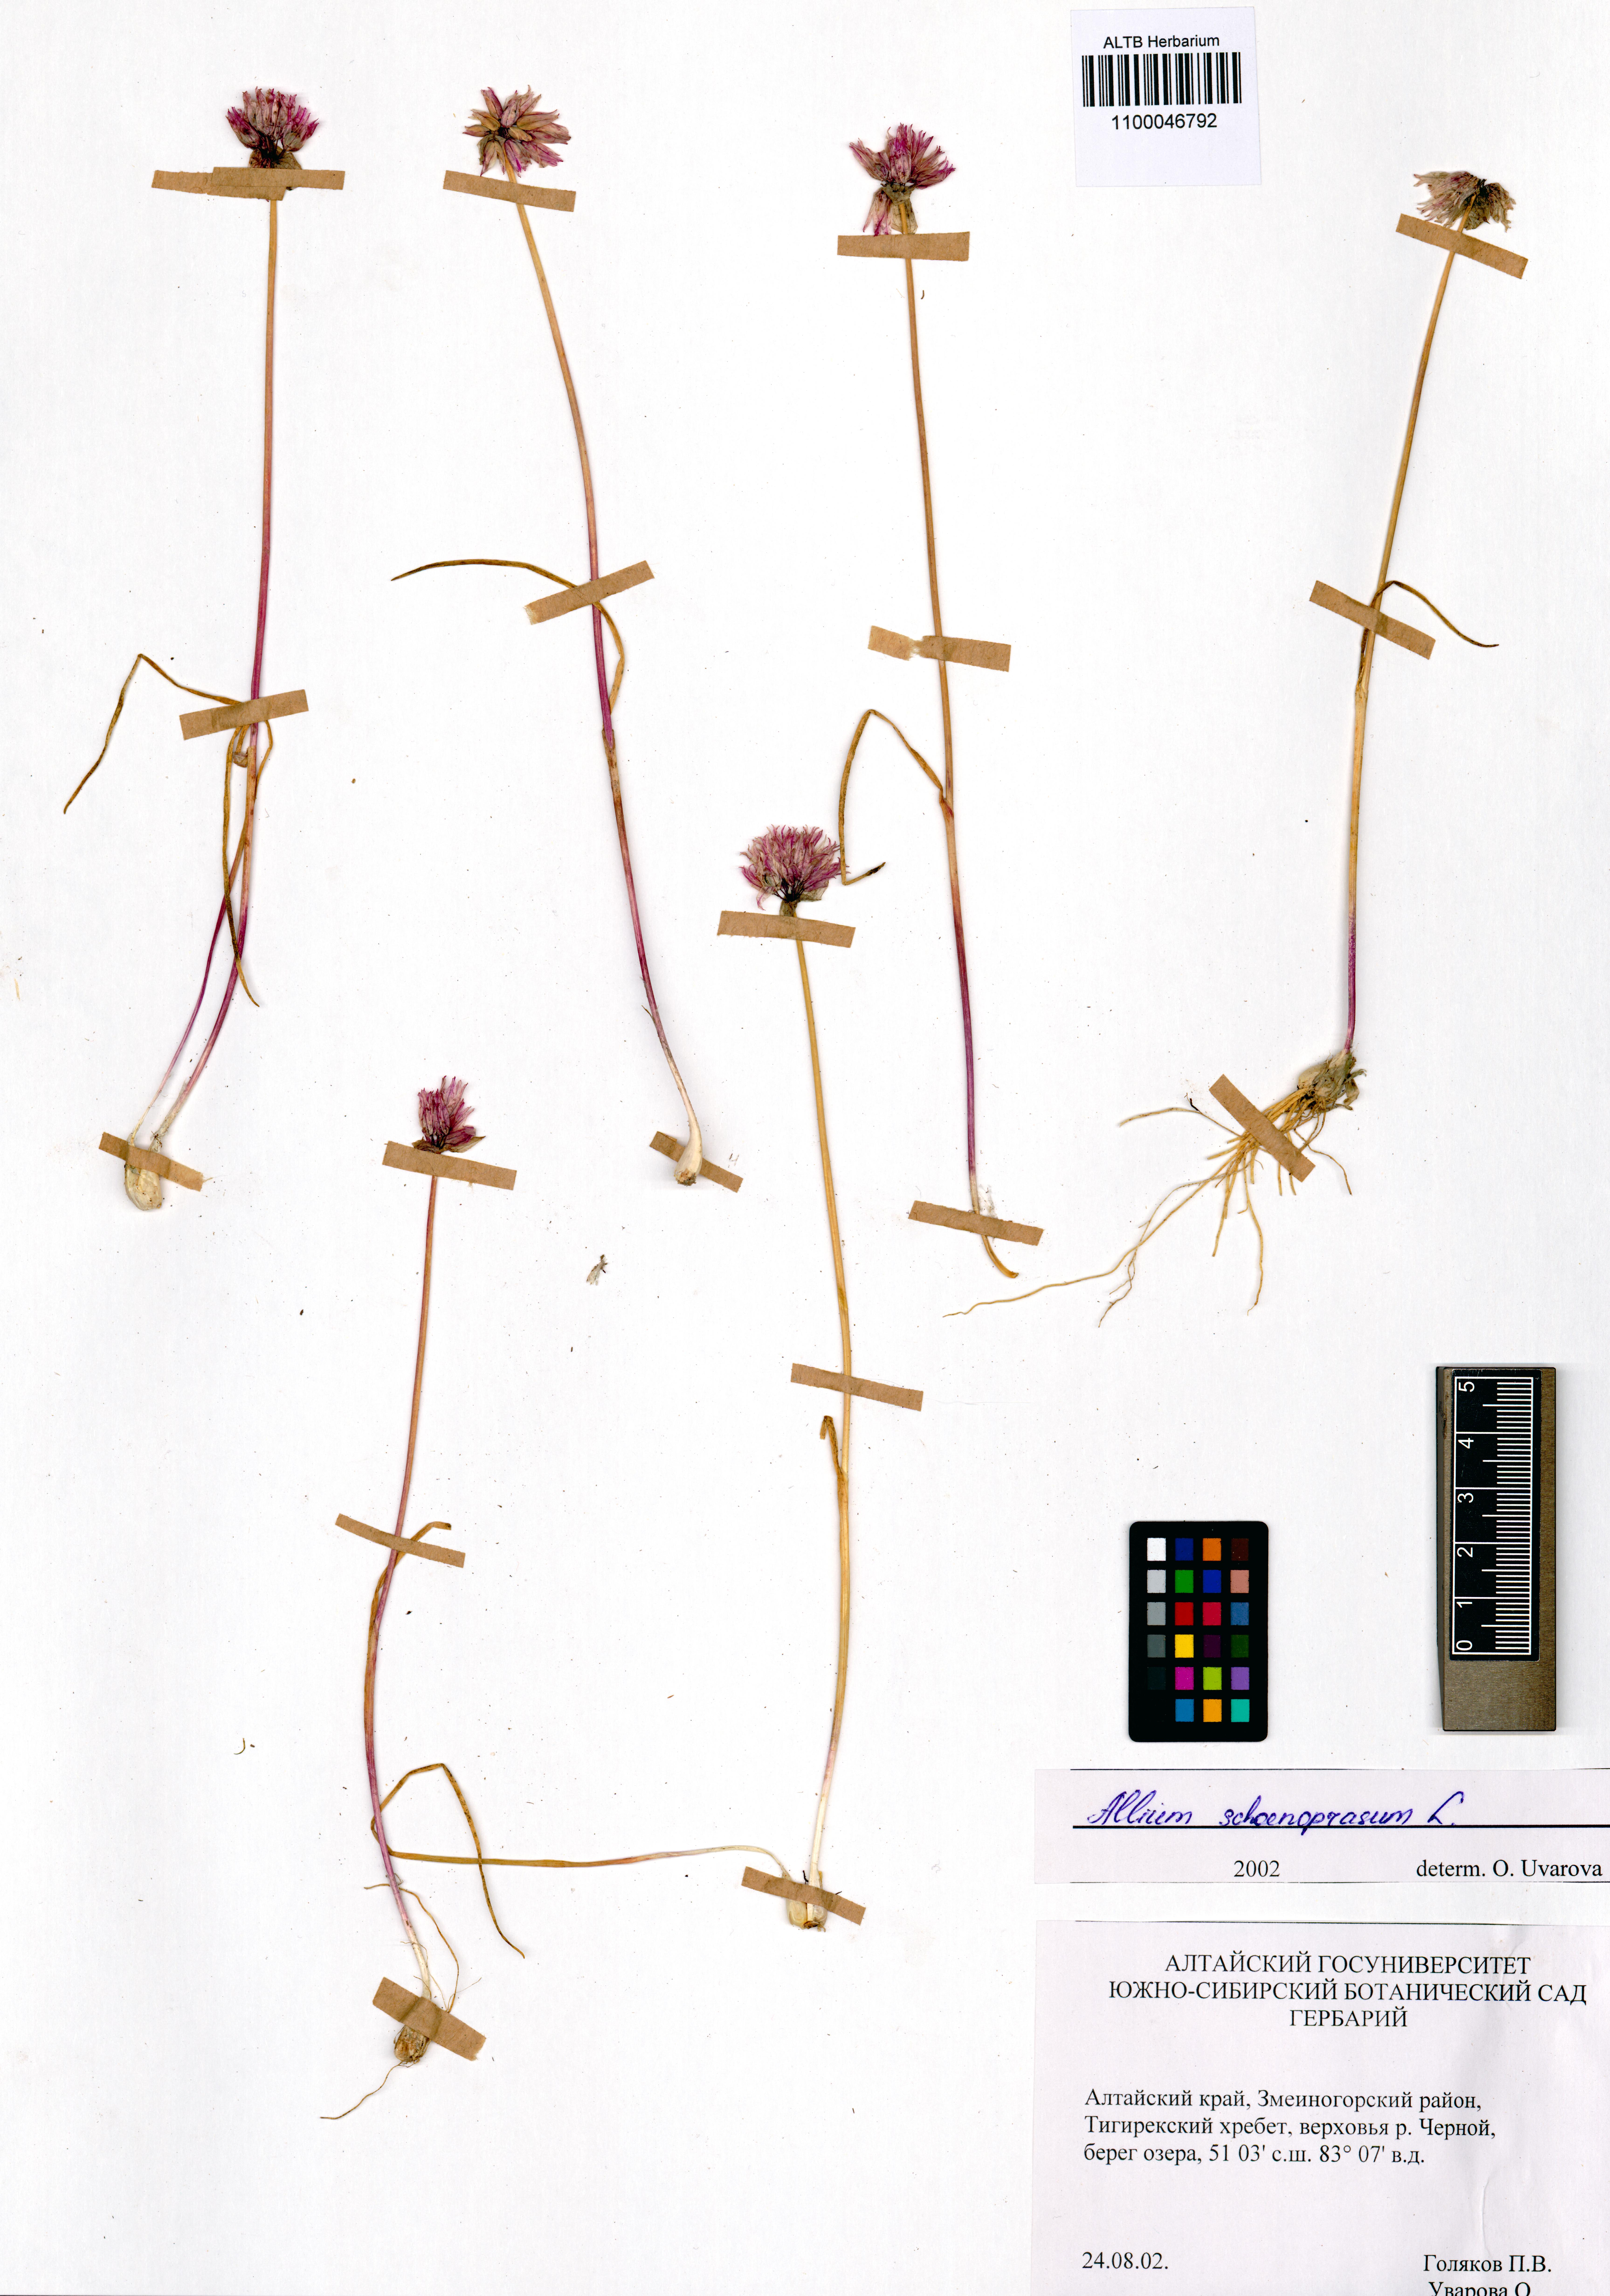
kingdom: Plantae
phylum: Tracheophyta
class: Liliopsida
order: Asparagales
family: Amaryllidaceae
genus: Allium
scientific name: Allium schoenoprasum
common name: Chives
